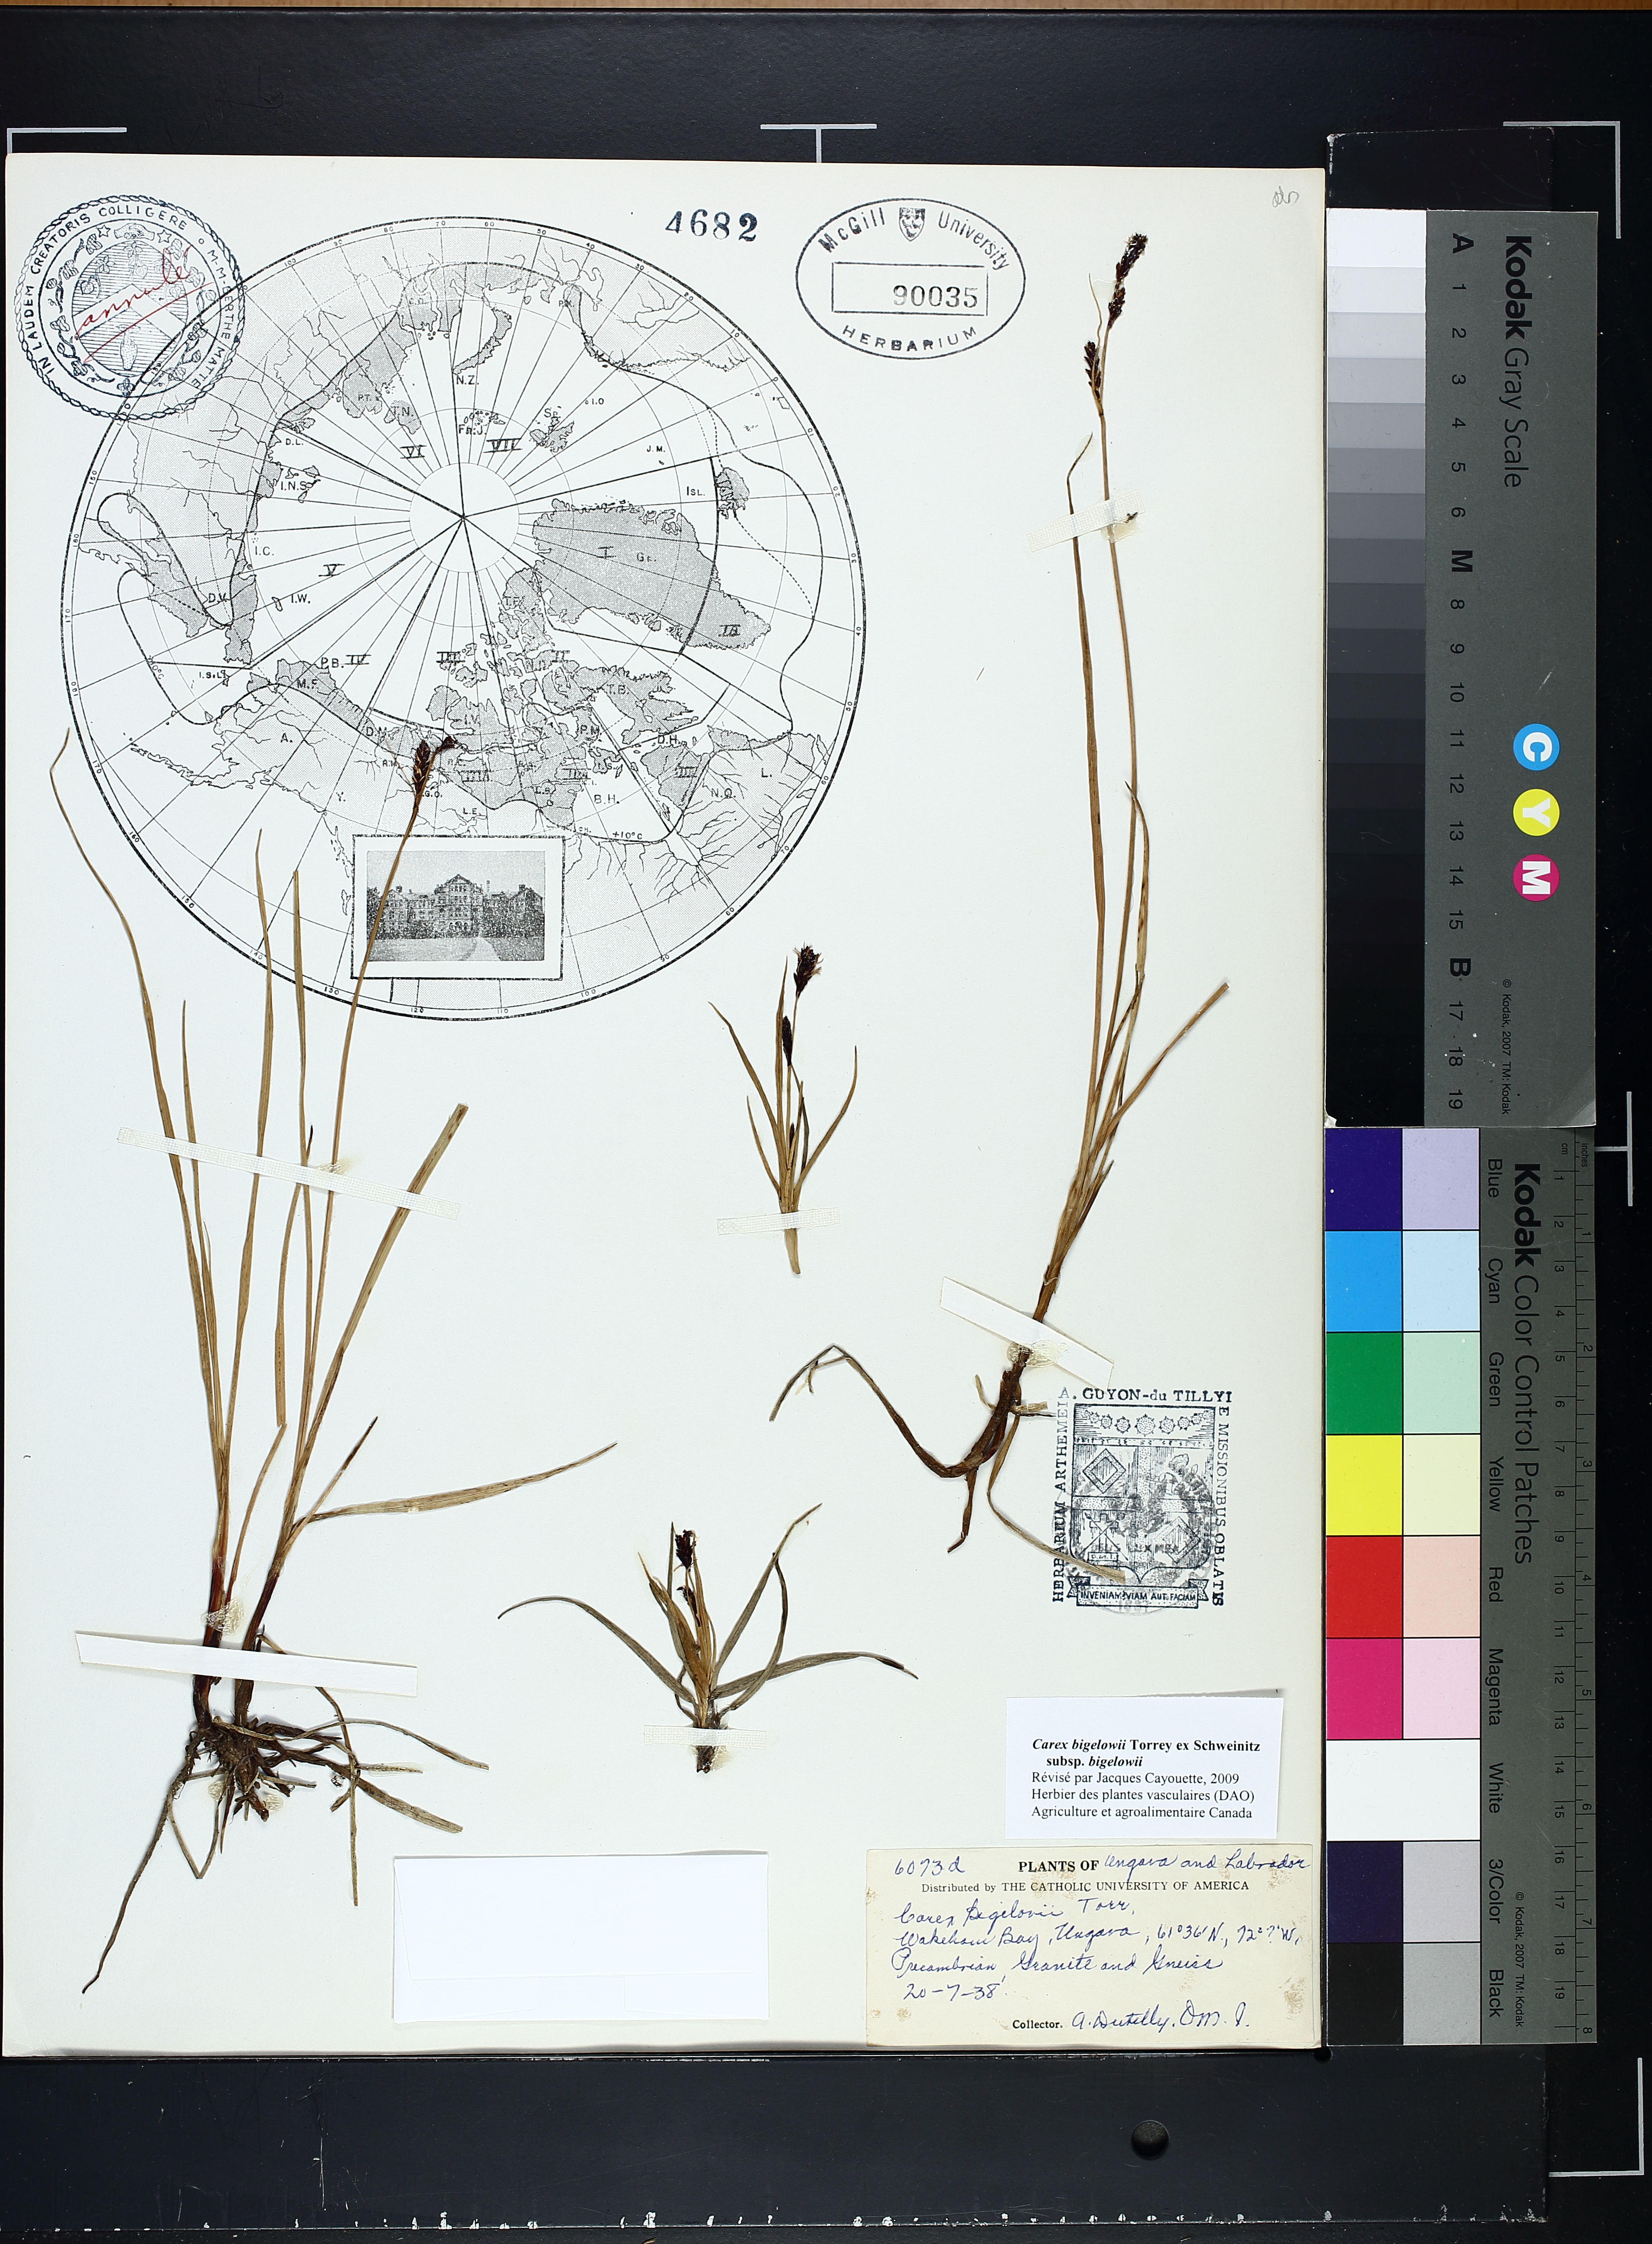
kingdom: Plantae
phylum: Tracheophyta
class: Liliopsida
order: Poales
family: Cyperaceae
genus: Carex
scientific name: Carex bigelowii
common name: Stiff sedge
